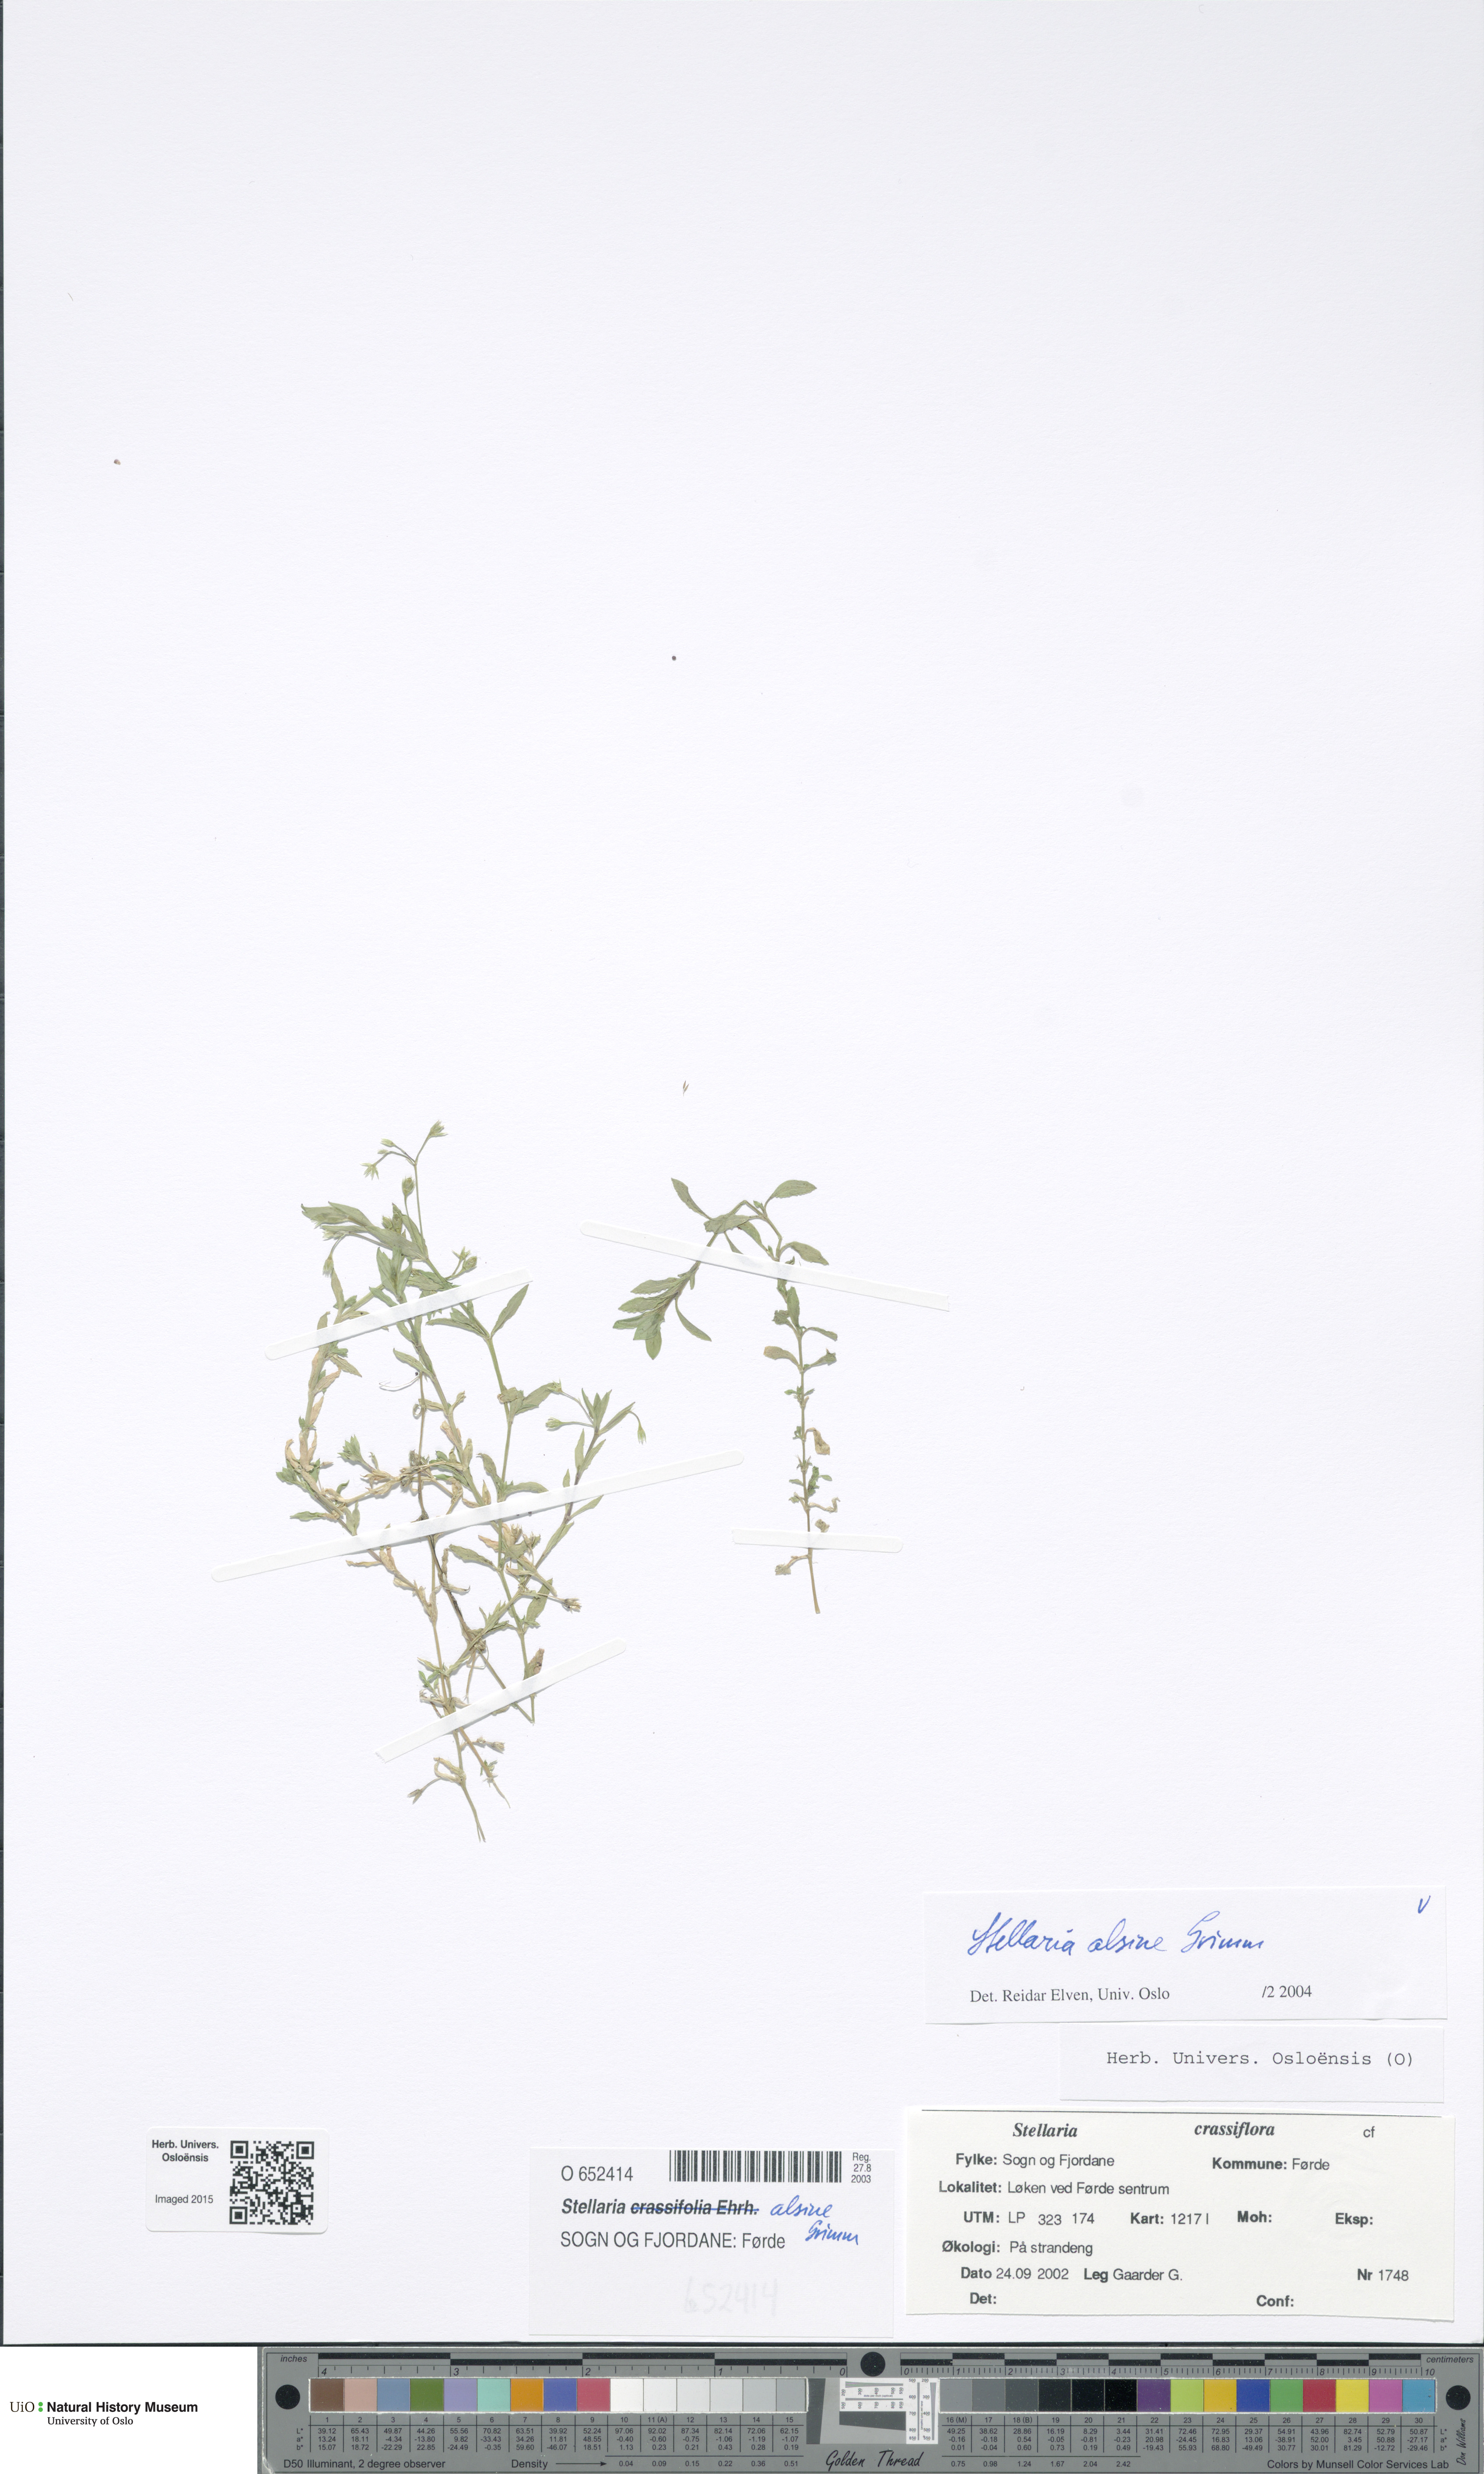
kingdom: Plantae
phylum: Tracheophyta
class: Magnoliopsida
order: Caryophyllales
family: Caryophyllaceae
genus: Stellaria
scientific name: Stellaria alsine
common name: Bog stitchwort
